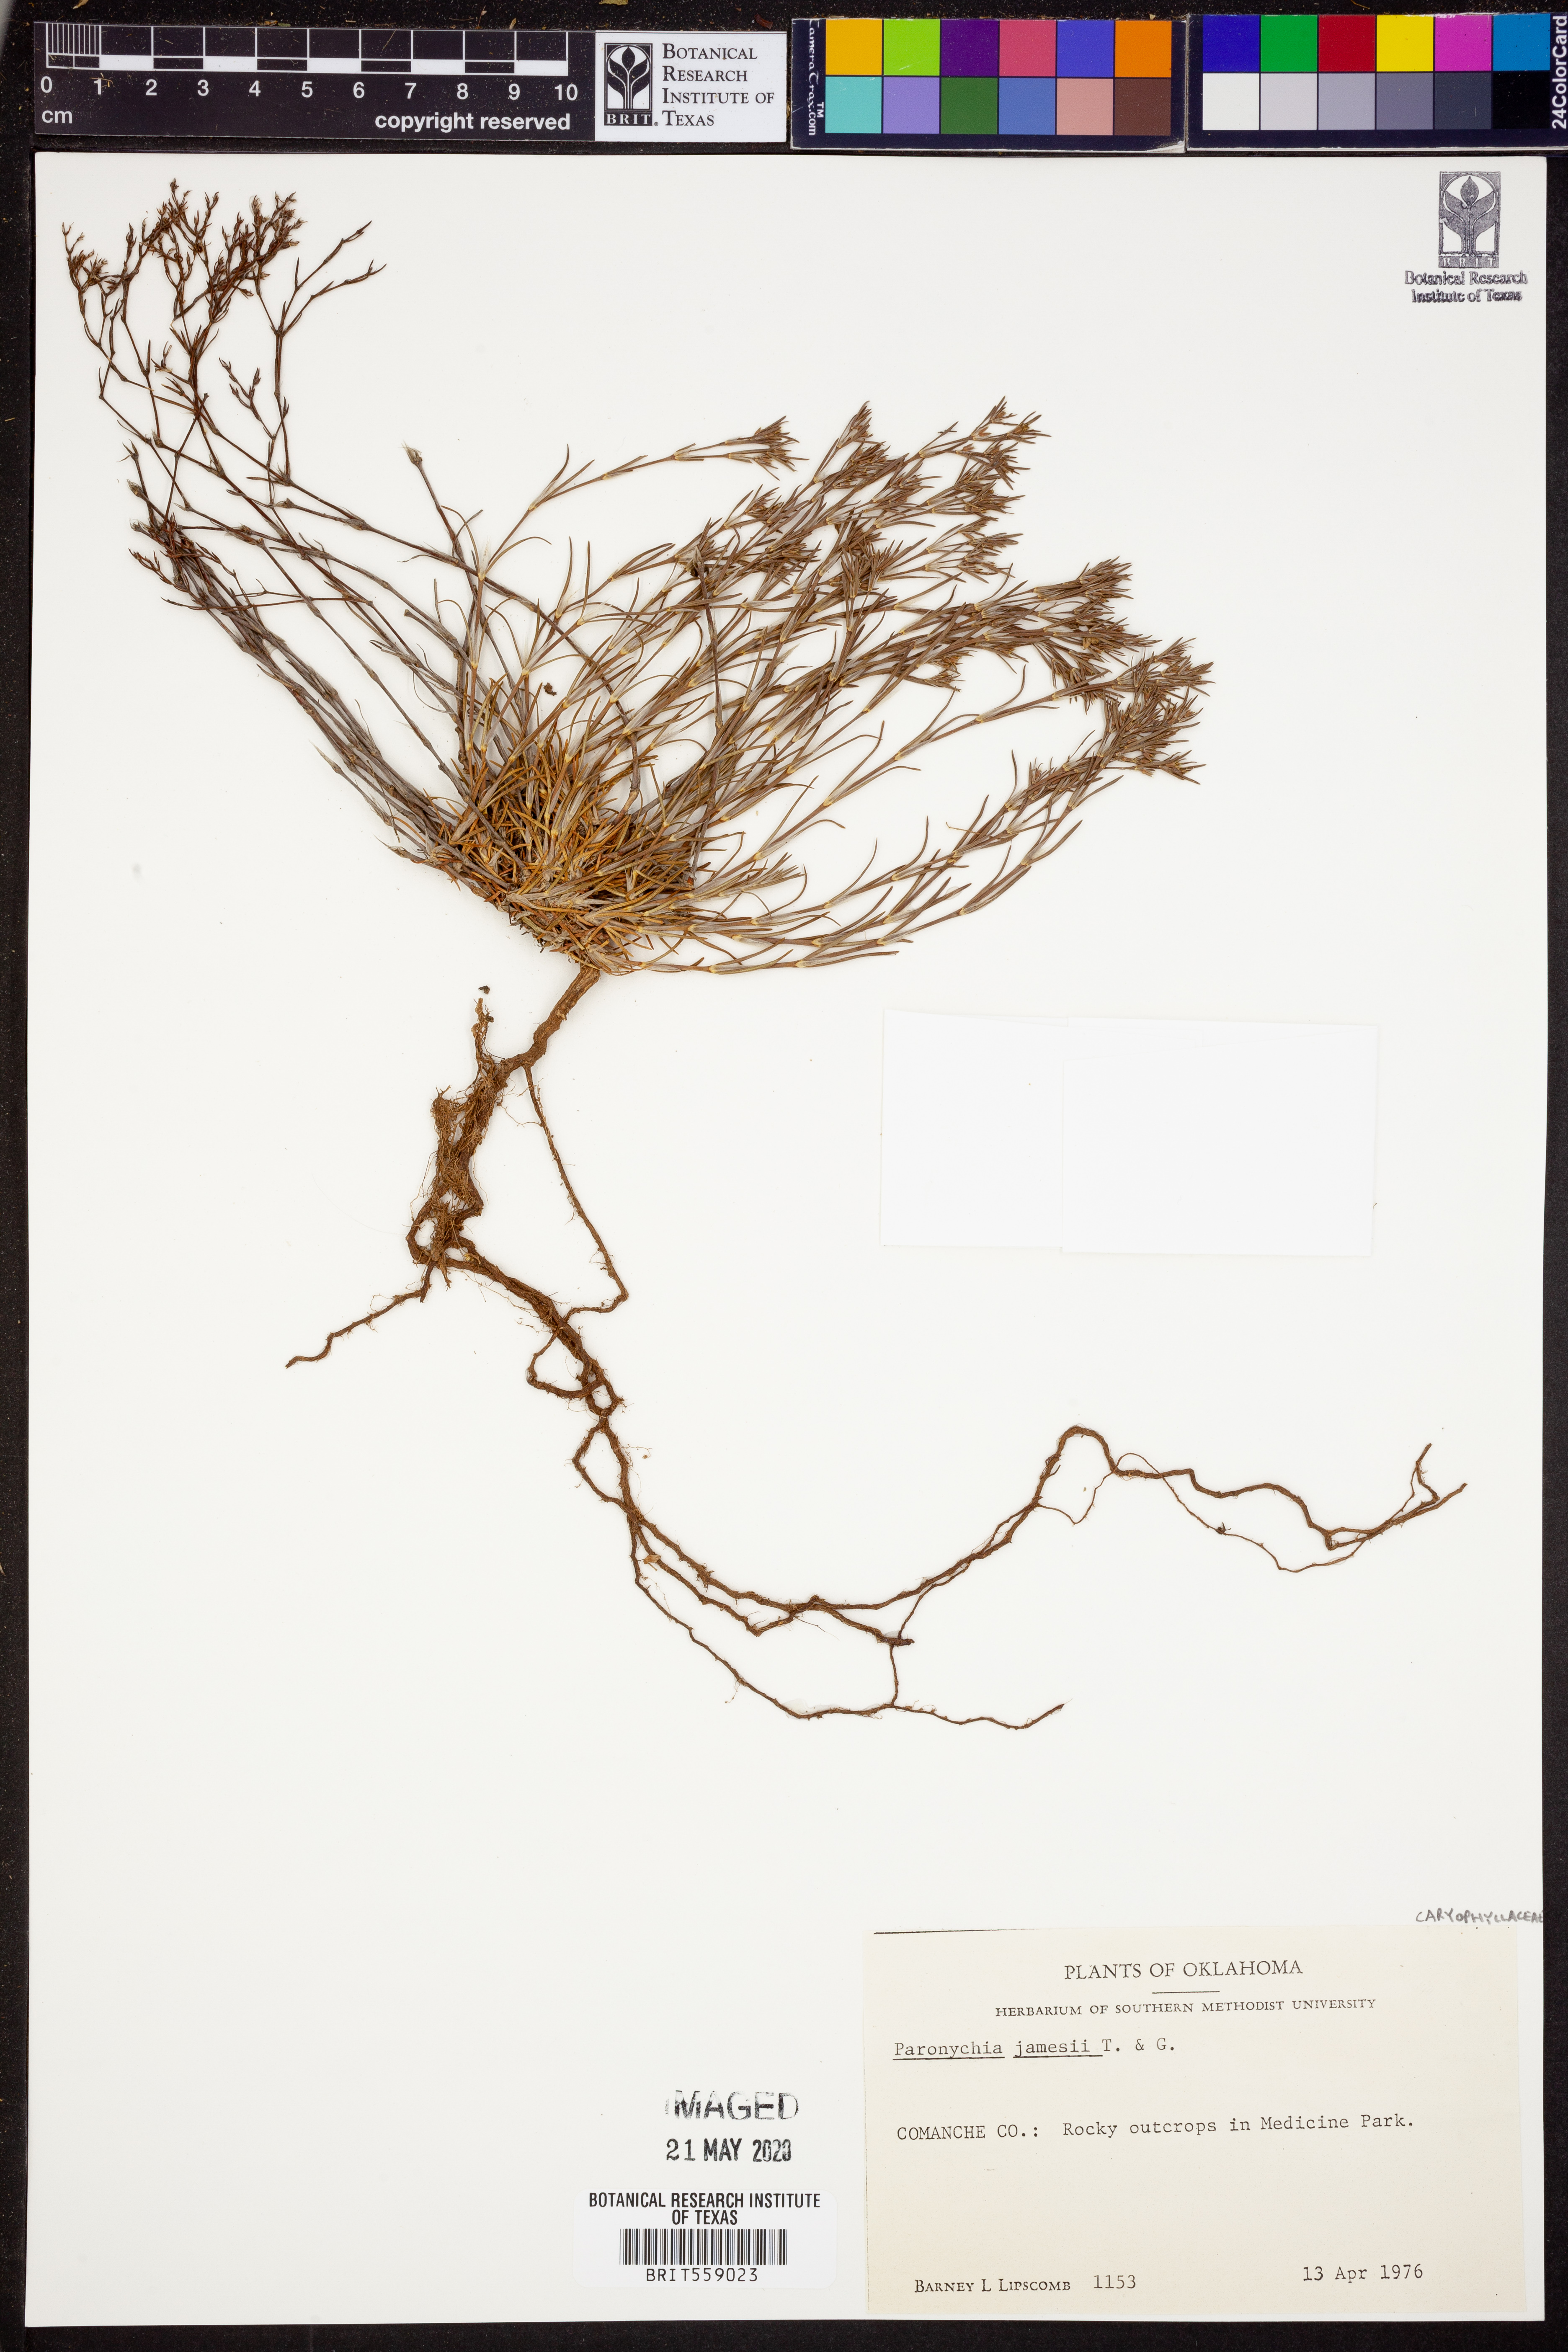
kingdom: Plantae
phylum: Tracheophyta
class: Magnoliopsida
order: Caryophyllales
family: Caryophyllaceae
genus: Paronychia
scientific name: Paronychia jamesii
